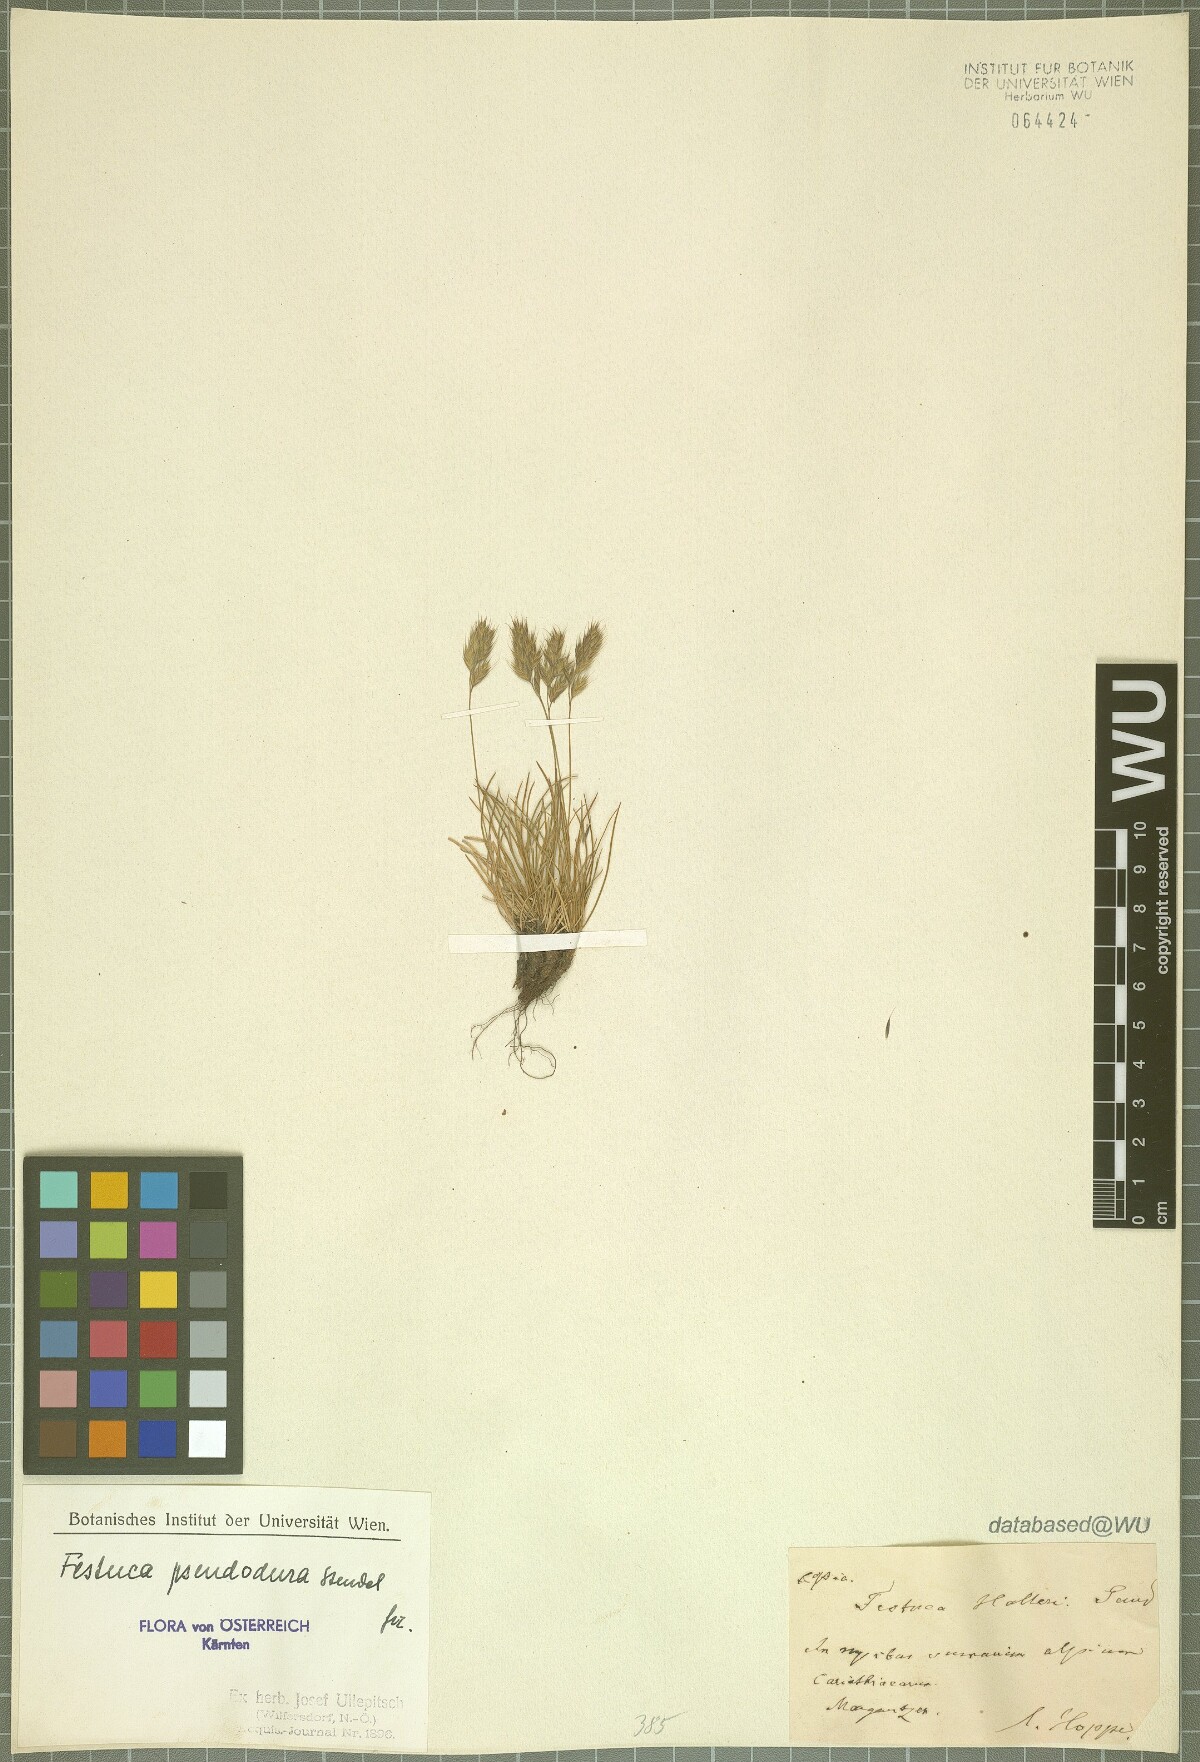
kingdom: Plantae
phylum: Tracheophyta
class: Liliopsida
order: Poales
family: Poaceae
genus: Festuca
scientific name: Festuca pseudodura
